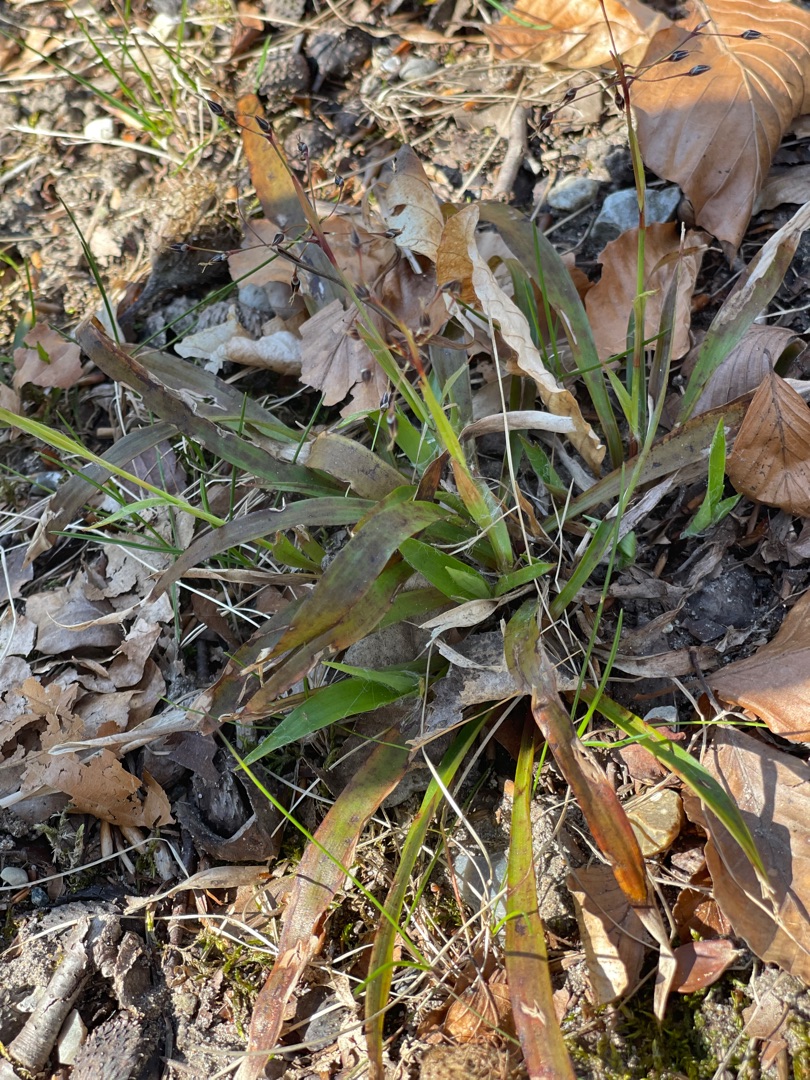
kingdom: Plantae
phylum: Tracheophyta
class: Liliopsida
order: Poales
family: Juncaceae
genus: Luzula
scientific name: Luzula pilosa
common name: Håret frytle
